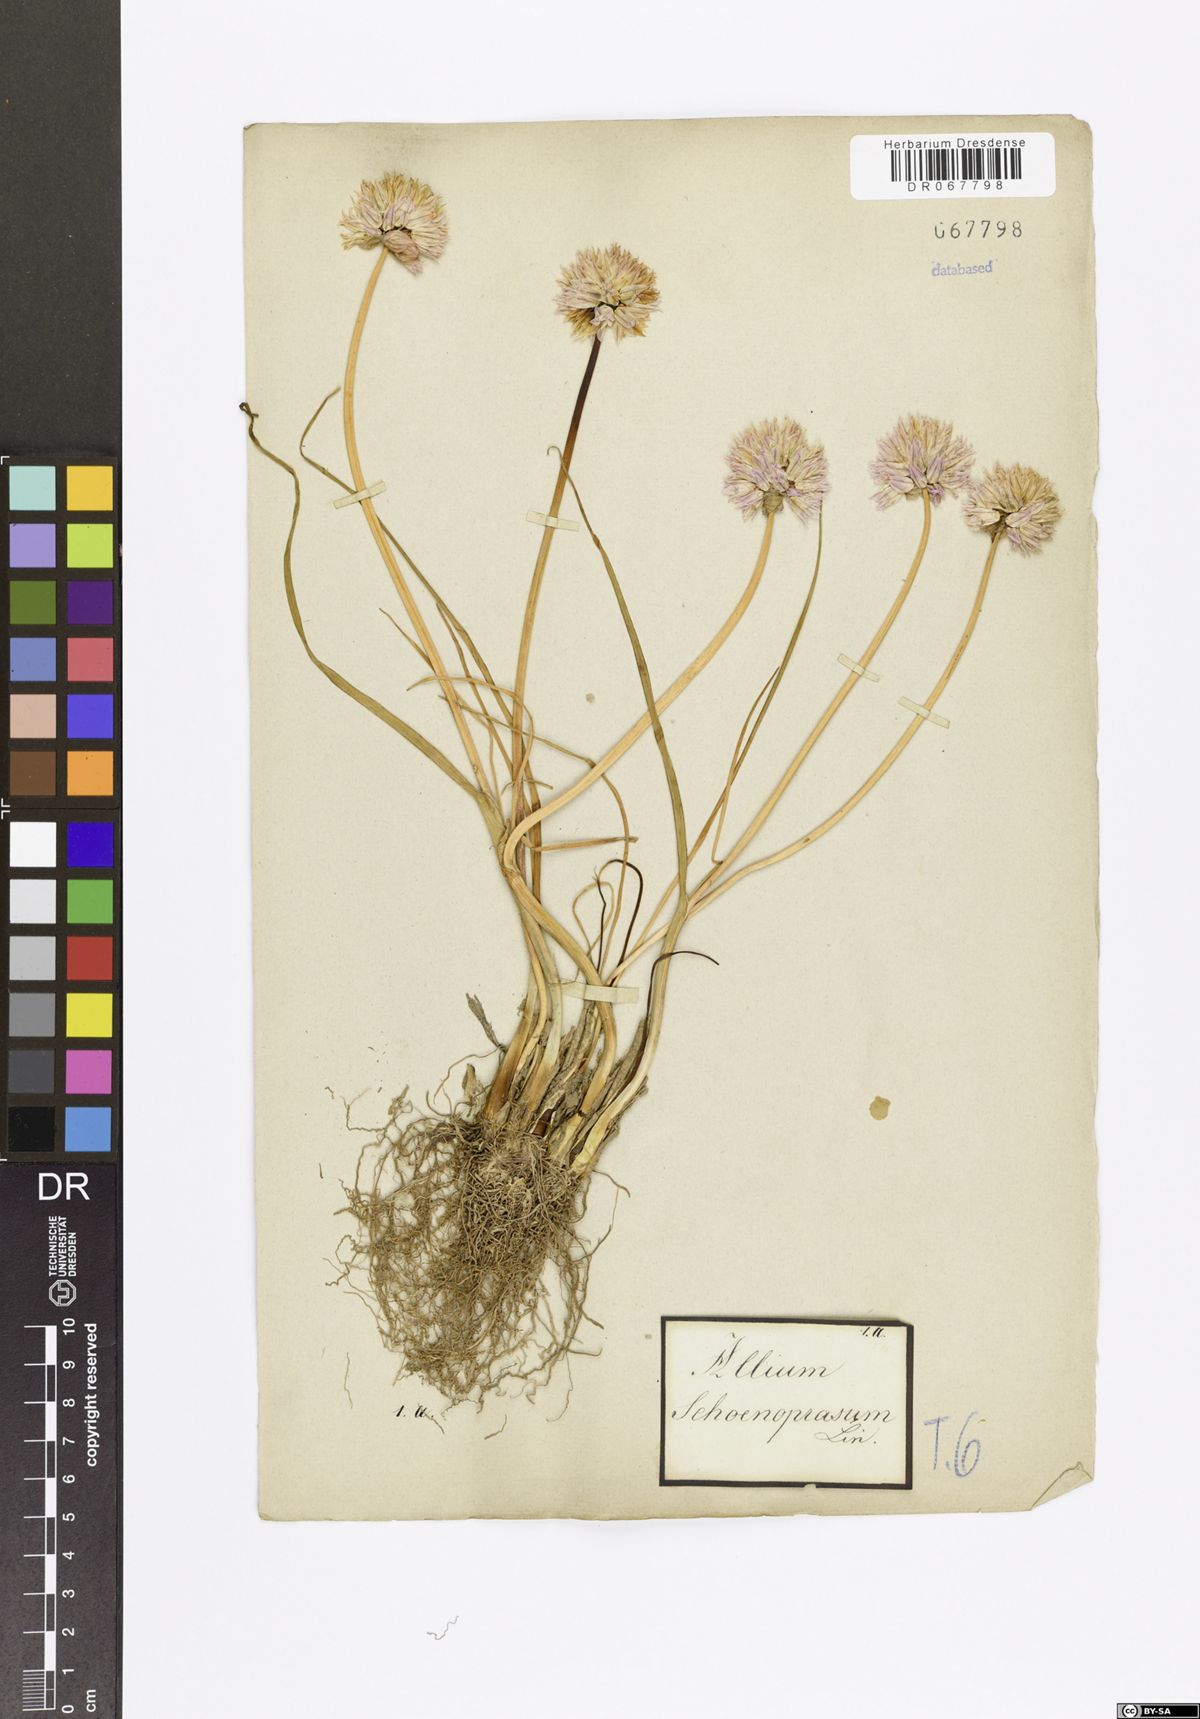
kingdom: Plantae
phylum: Tracheophyta
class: Liliopsida
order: Asparagales
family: Amaryllidaceae
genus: Allium
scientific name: Allium schoenoprasum
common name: Chives
